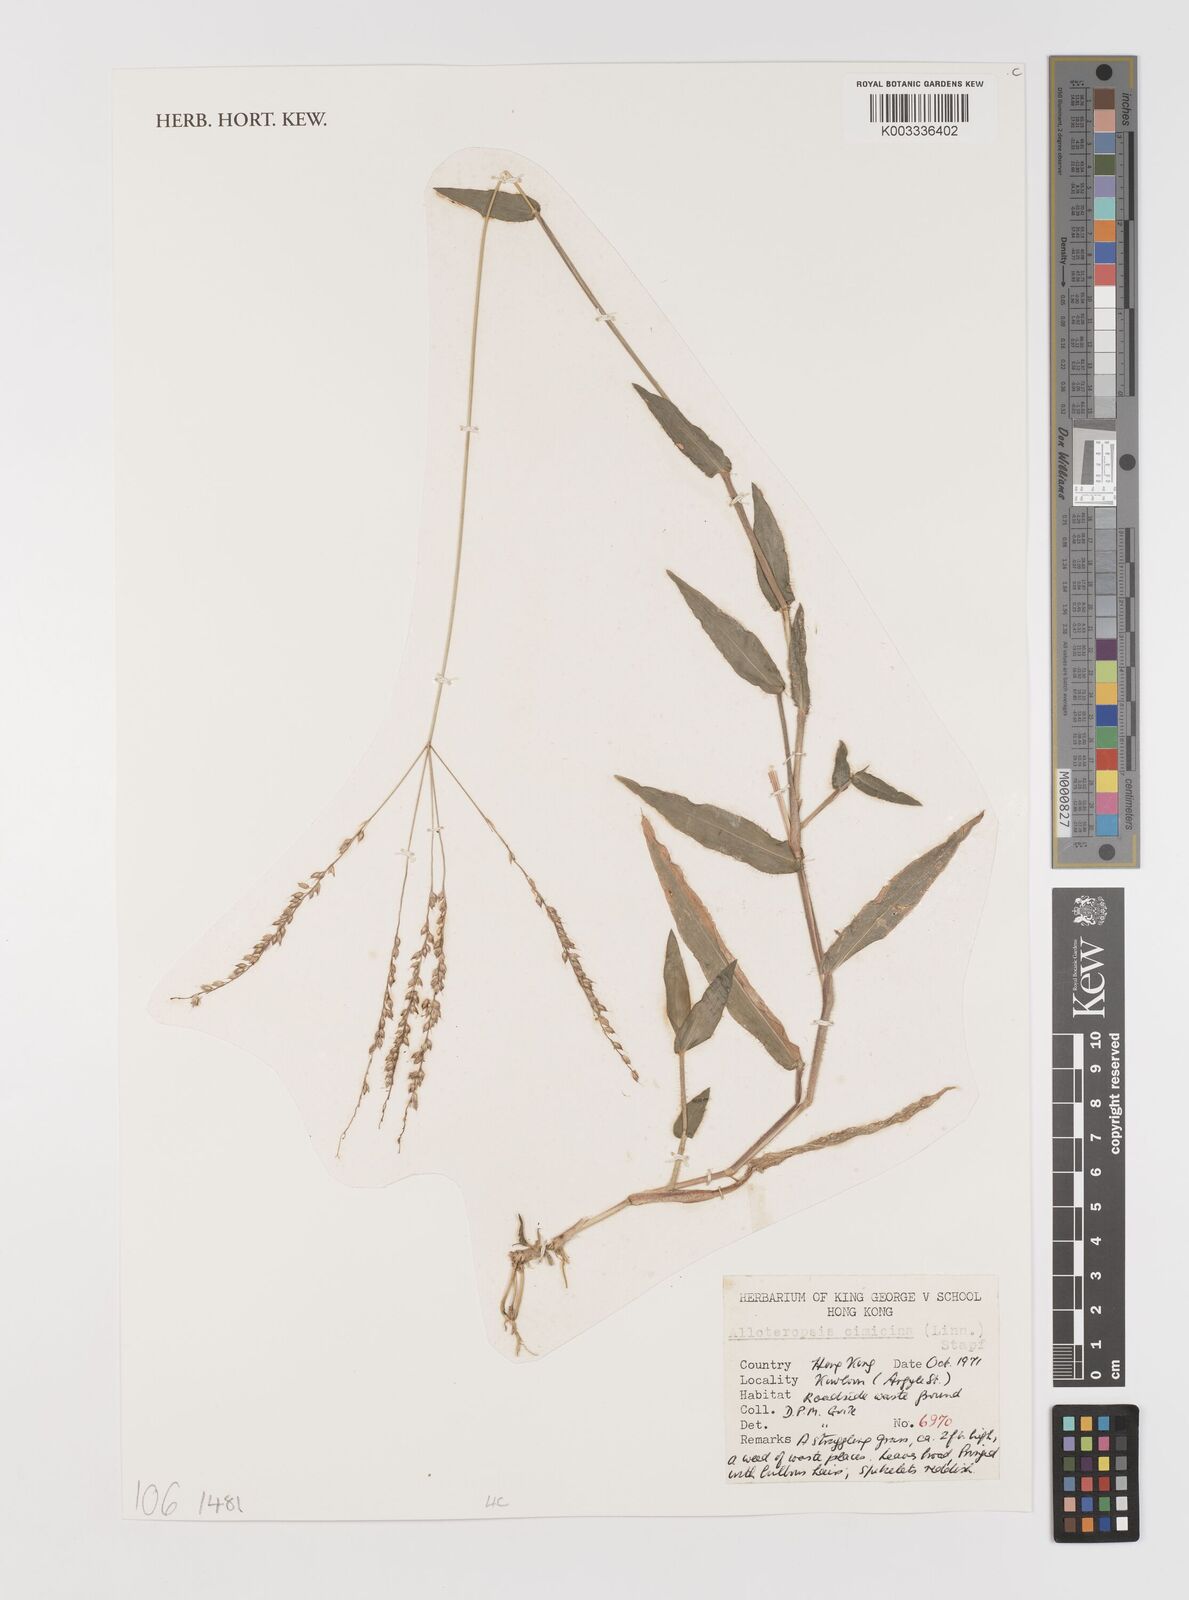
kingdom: Plantae
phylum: Tracheophyta
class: Liliopsida
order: Poales
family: Poaceae
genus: Alloteropsis
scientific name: Alloteropsis cimicina
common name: Summergrass
